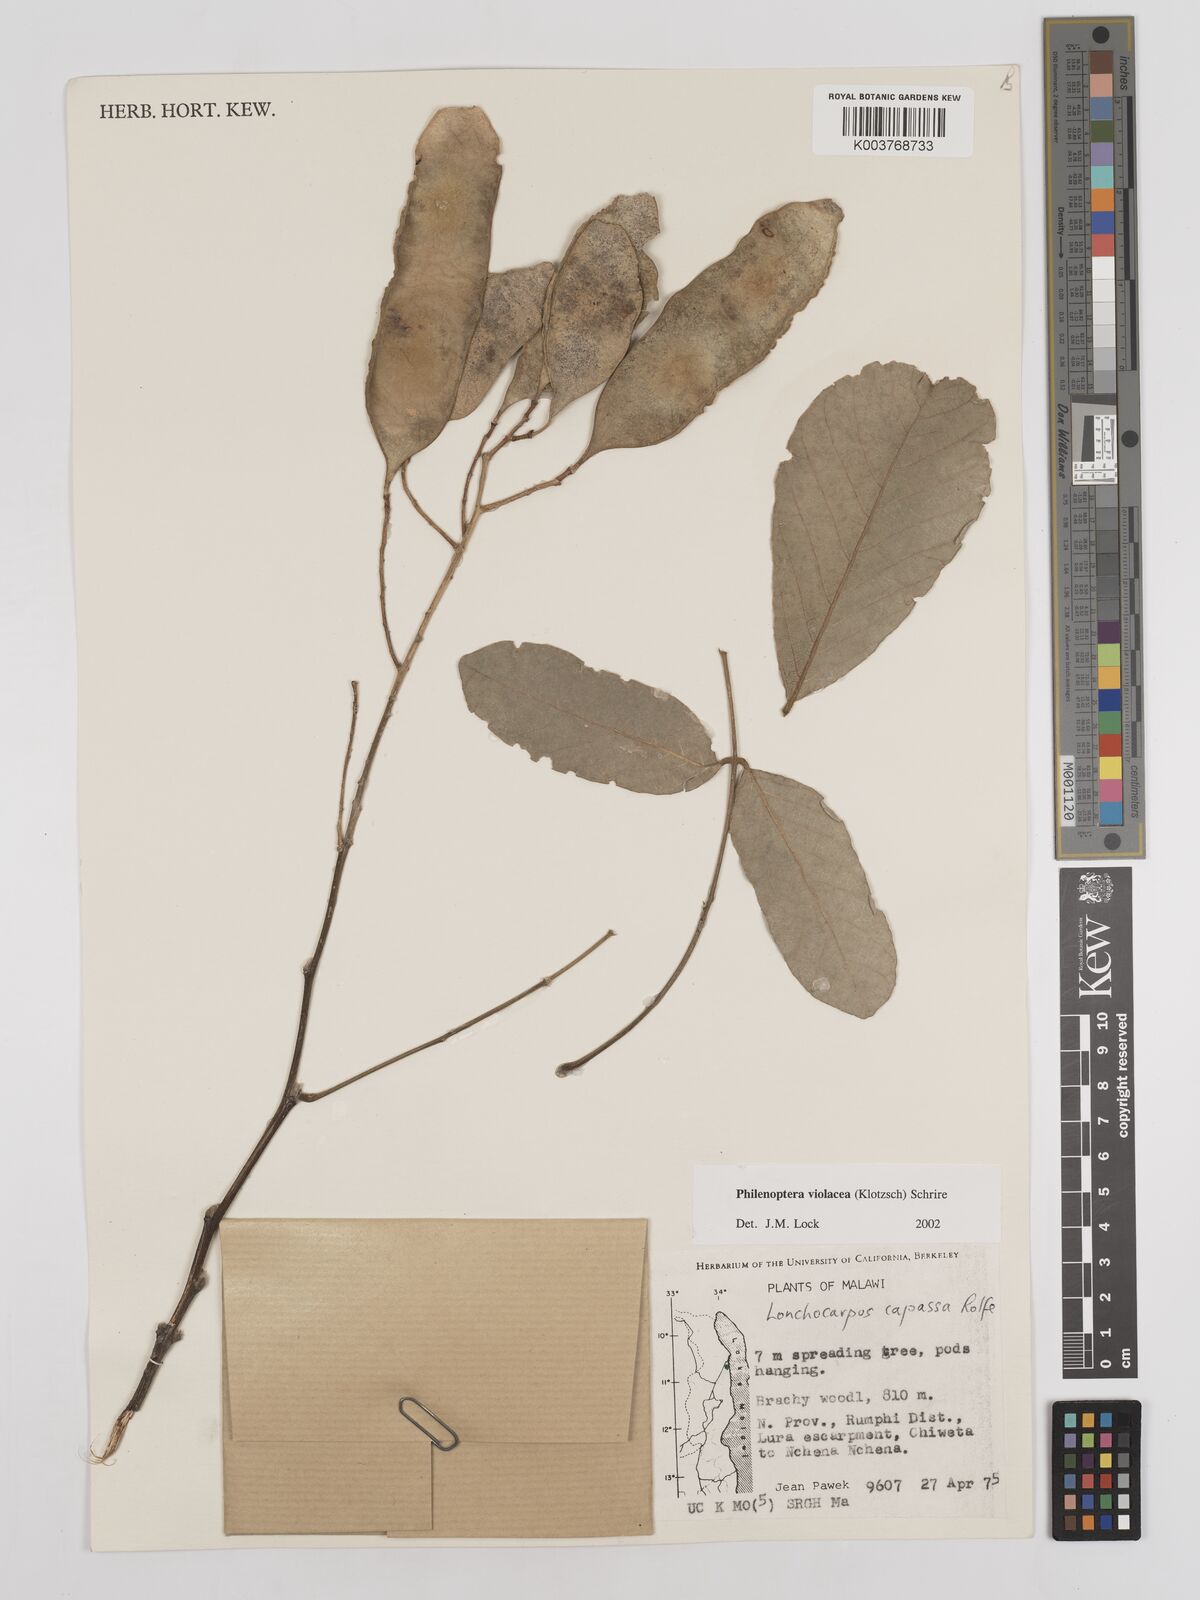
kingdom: Plantae
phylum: Tracheophyta
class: Magnoliopsida
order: Fabales
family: Fabaceae
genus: Philenoptera
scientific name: Philenoptera violacea
